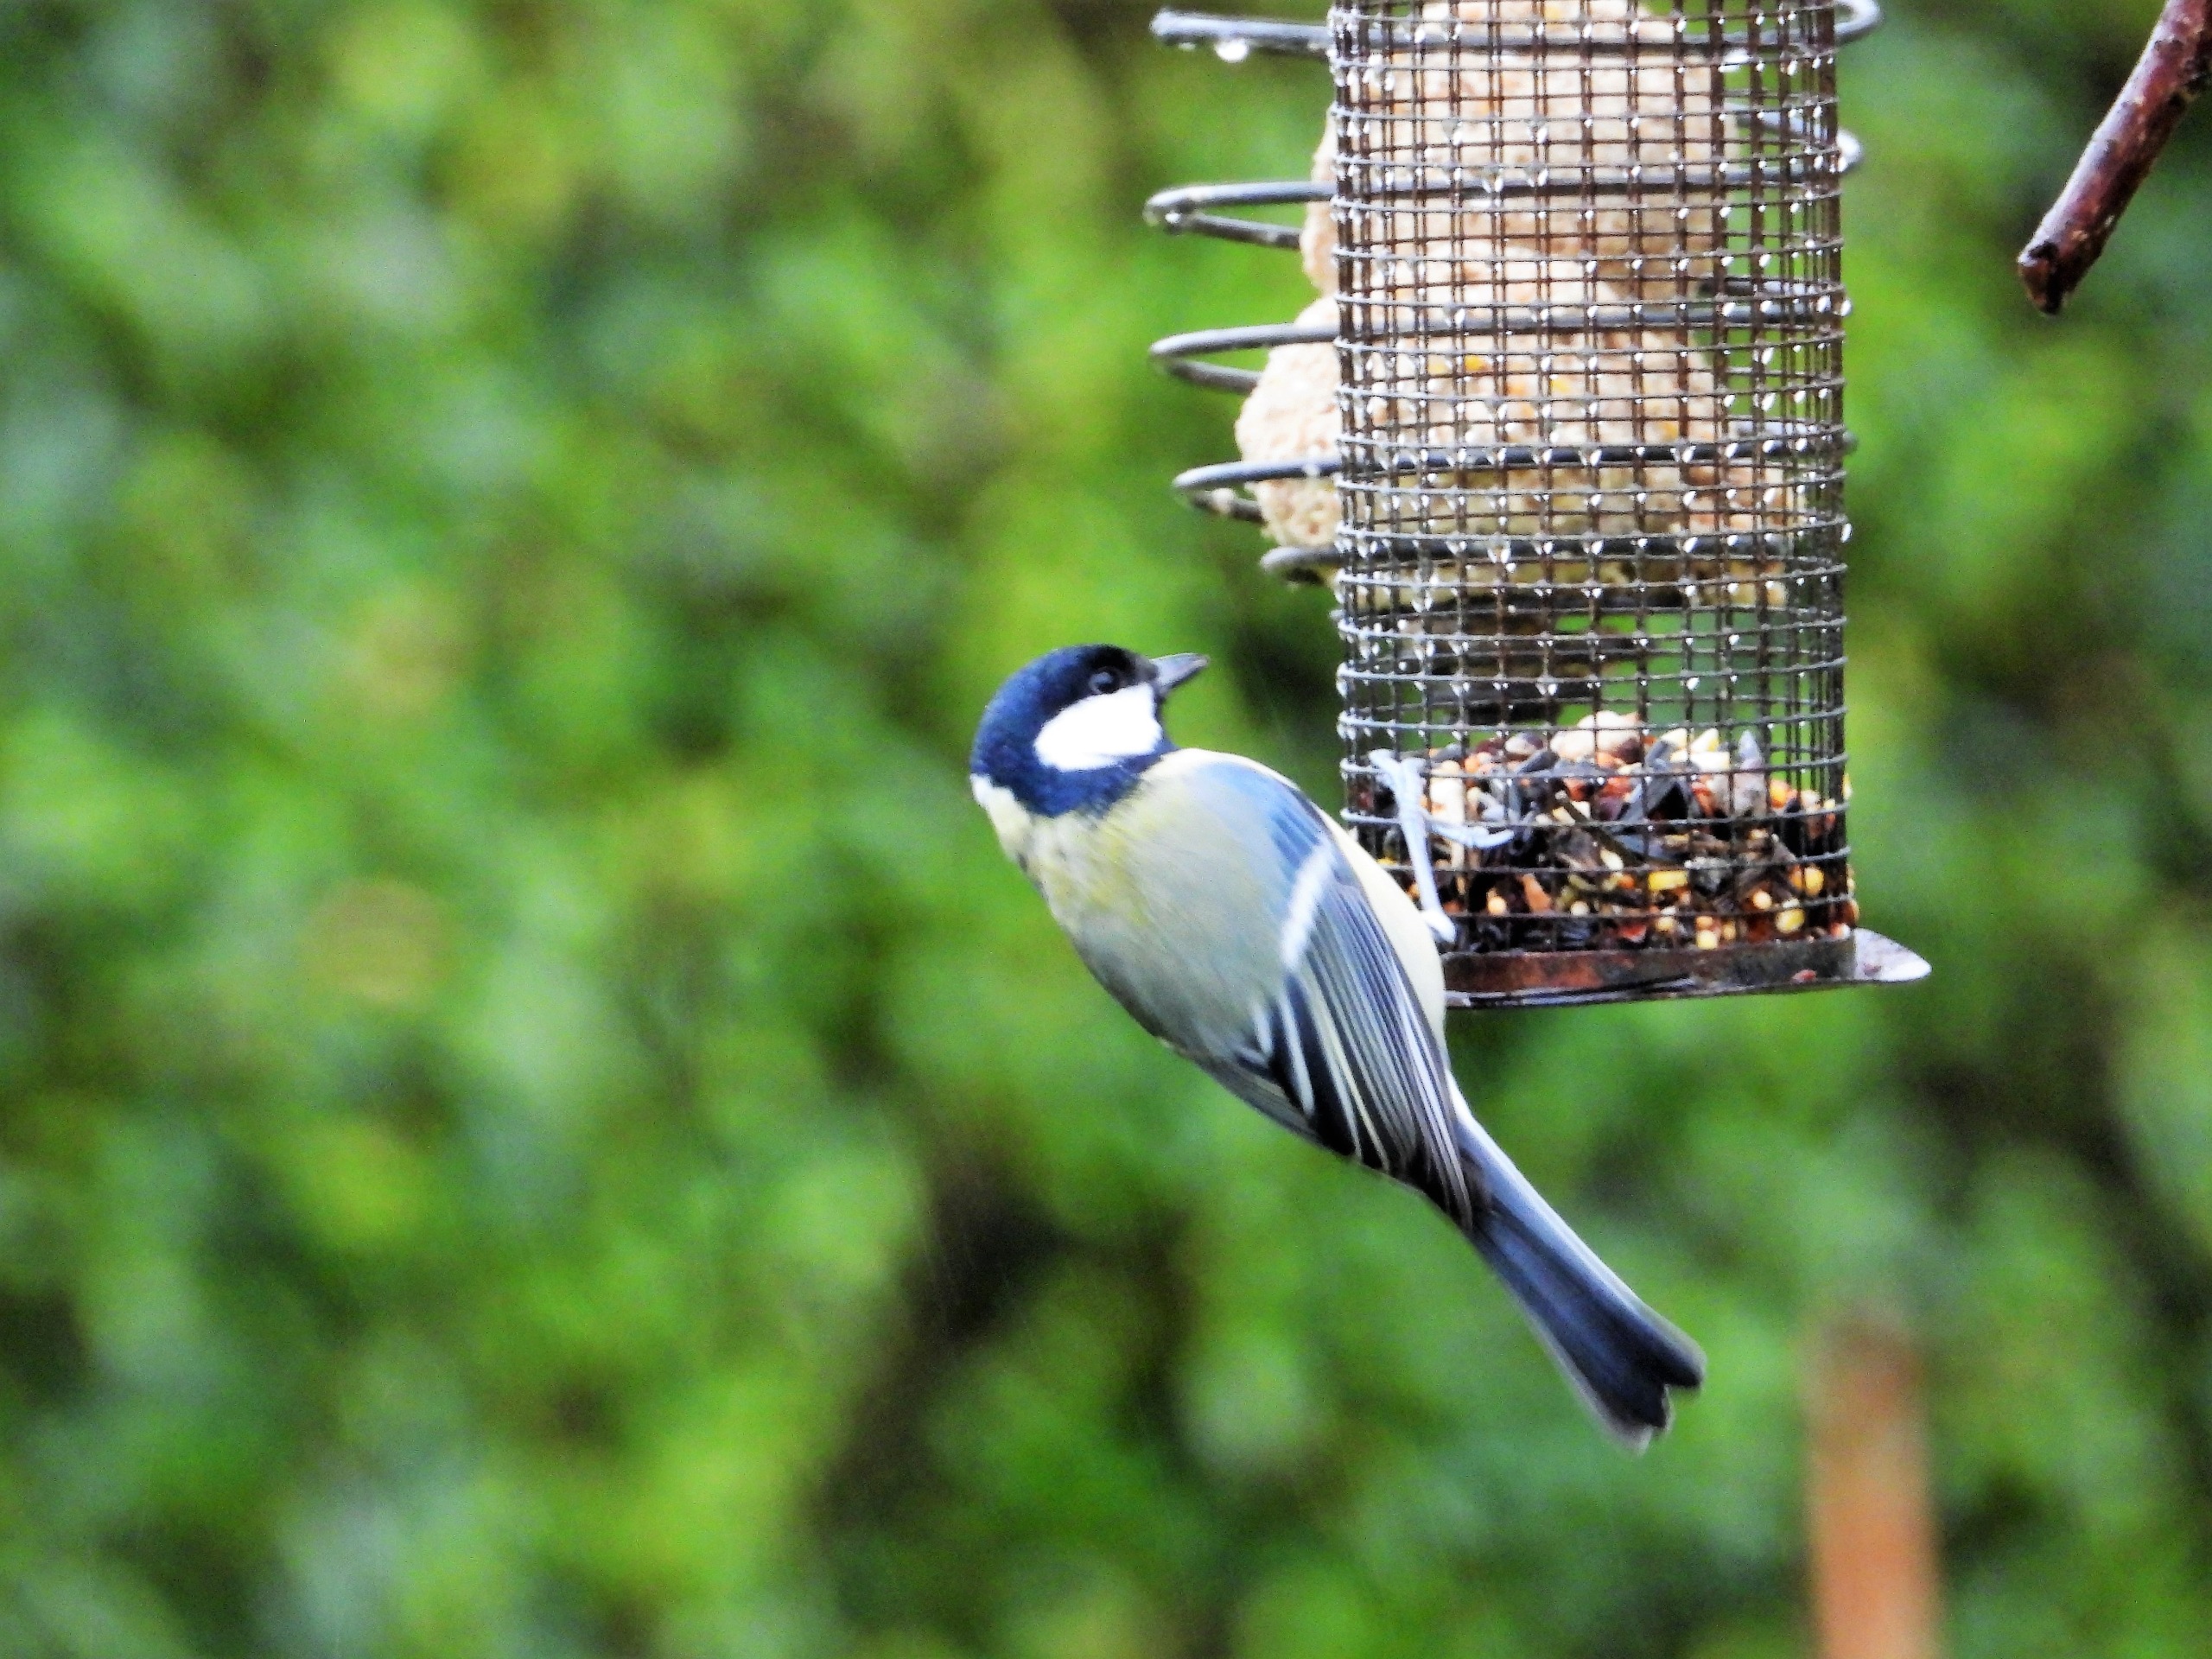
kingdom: Animalia
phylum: Chordata
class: Aves
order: Passeriformes
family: Paridae
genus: Parus
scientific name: Parus major
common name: Musvit
